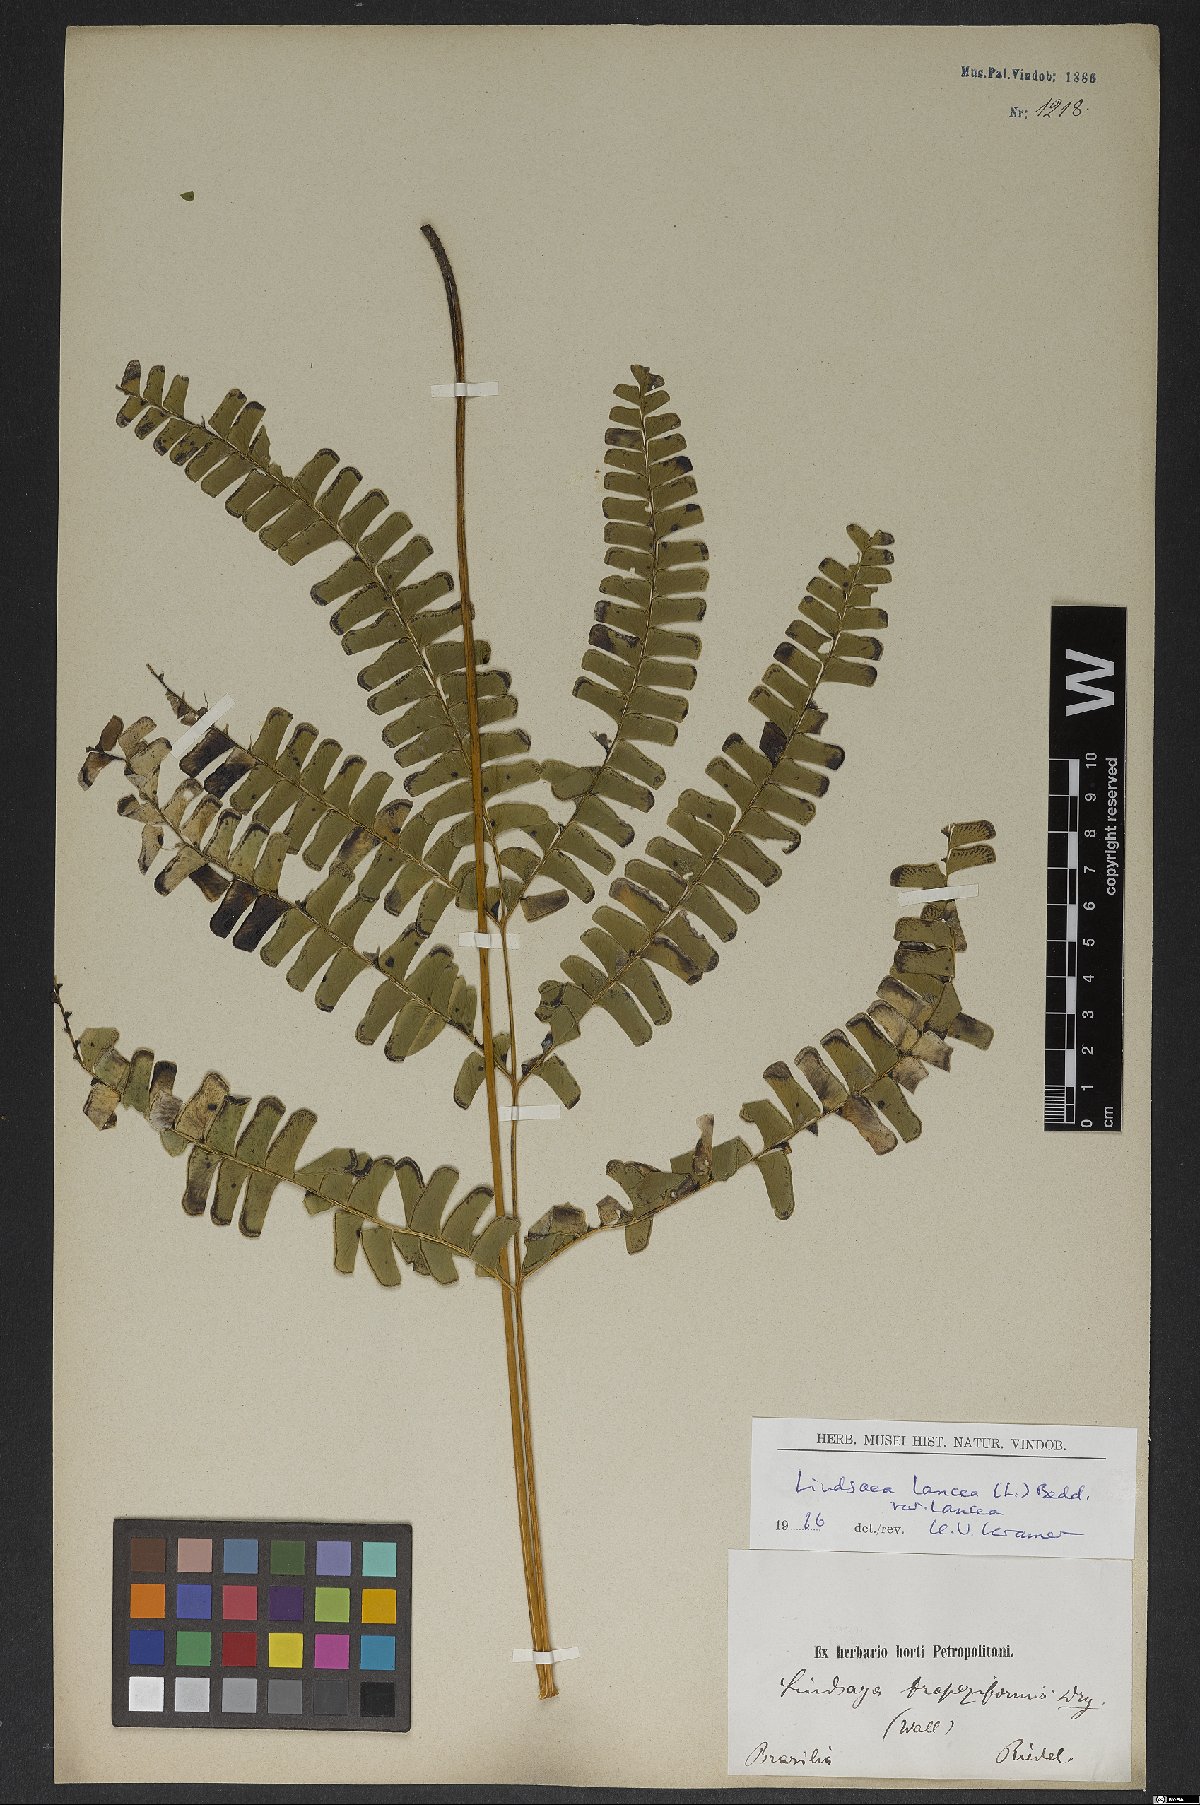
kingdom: Plantae
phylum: Tracheophyta
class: Polypodiopsida
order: Polypodiales
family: Lindsaeaceae
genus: Lindsaea
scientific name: Lindsaea lancea
